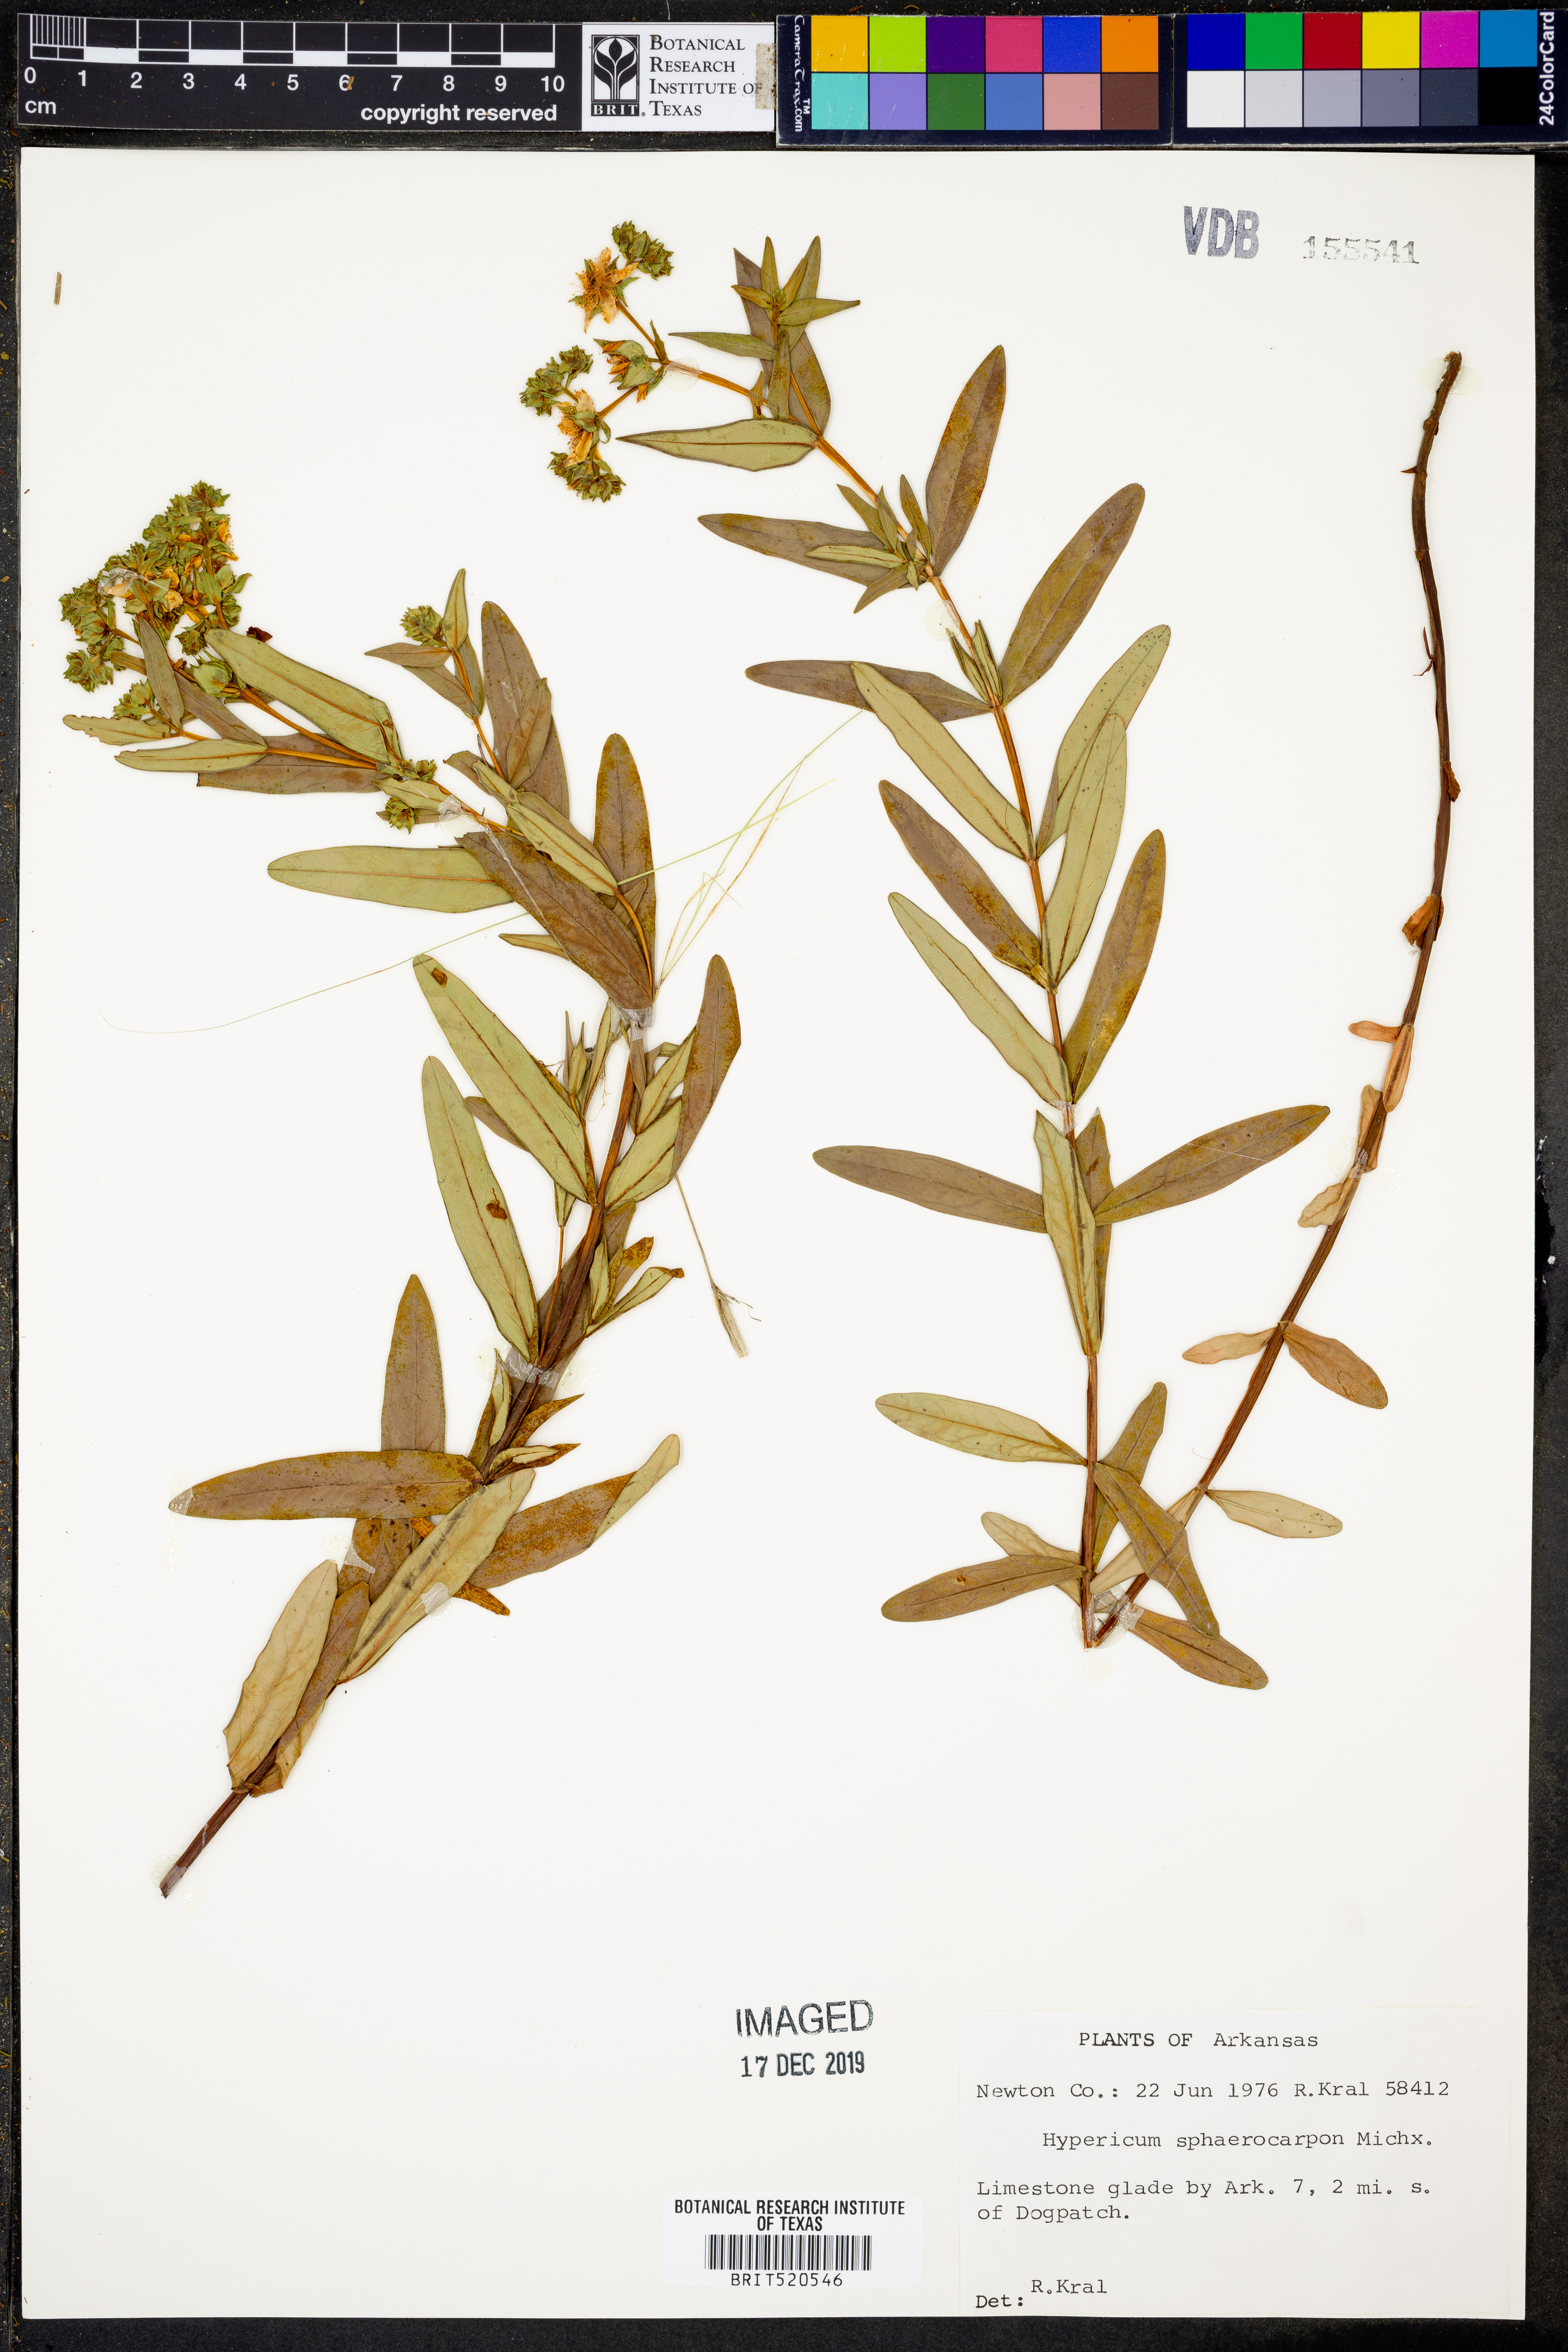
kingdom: Plantae
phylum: Tracheophyta
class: Magnoliopsida
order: Malpighiales
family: Hypericaceae
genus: Hypericum
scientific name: Hypericum sphaerocarpum
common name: Round-fruited st. john's-wort
